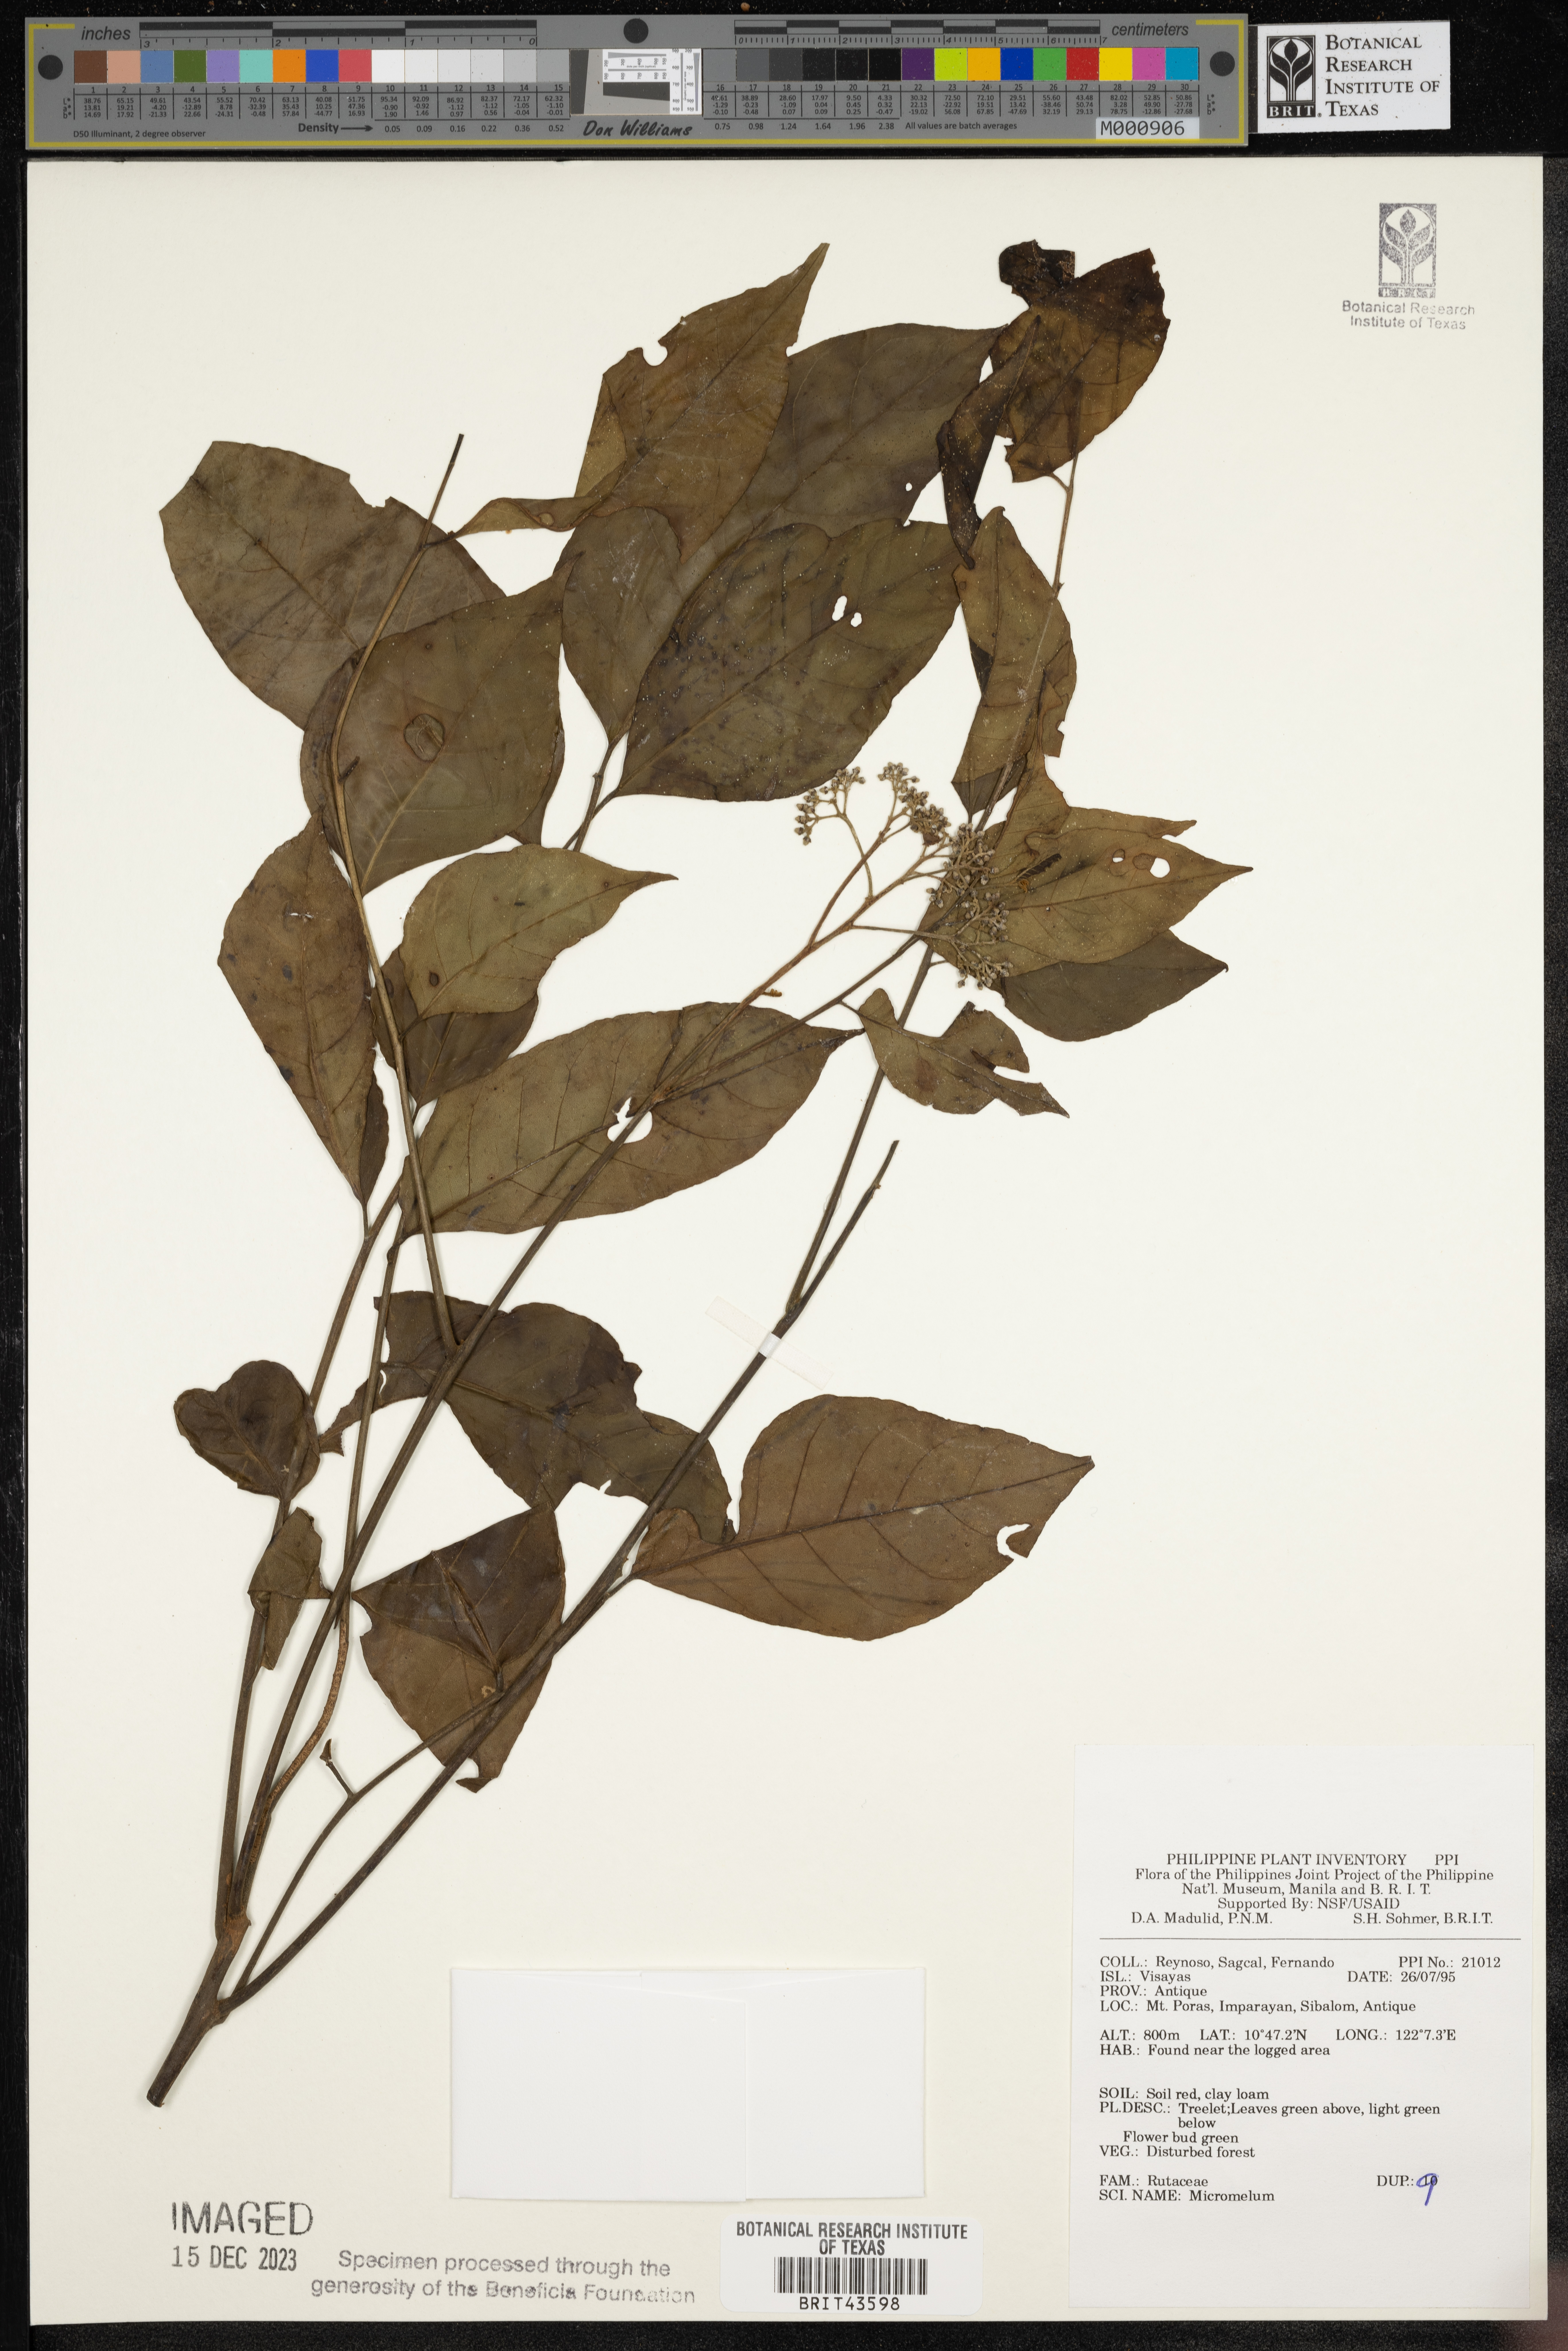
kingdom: Plantae
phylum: Tracheophyta
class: Magnoliopsida
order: Sapindales
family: Rutaceae
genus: Micromelum
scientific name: Micromelum
